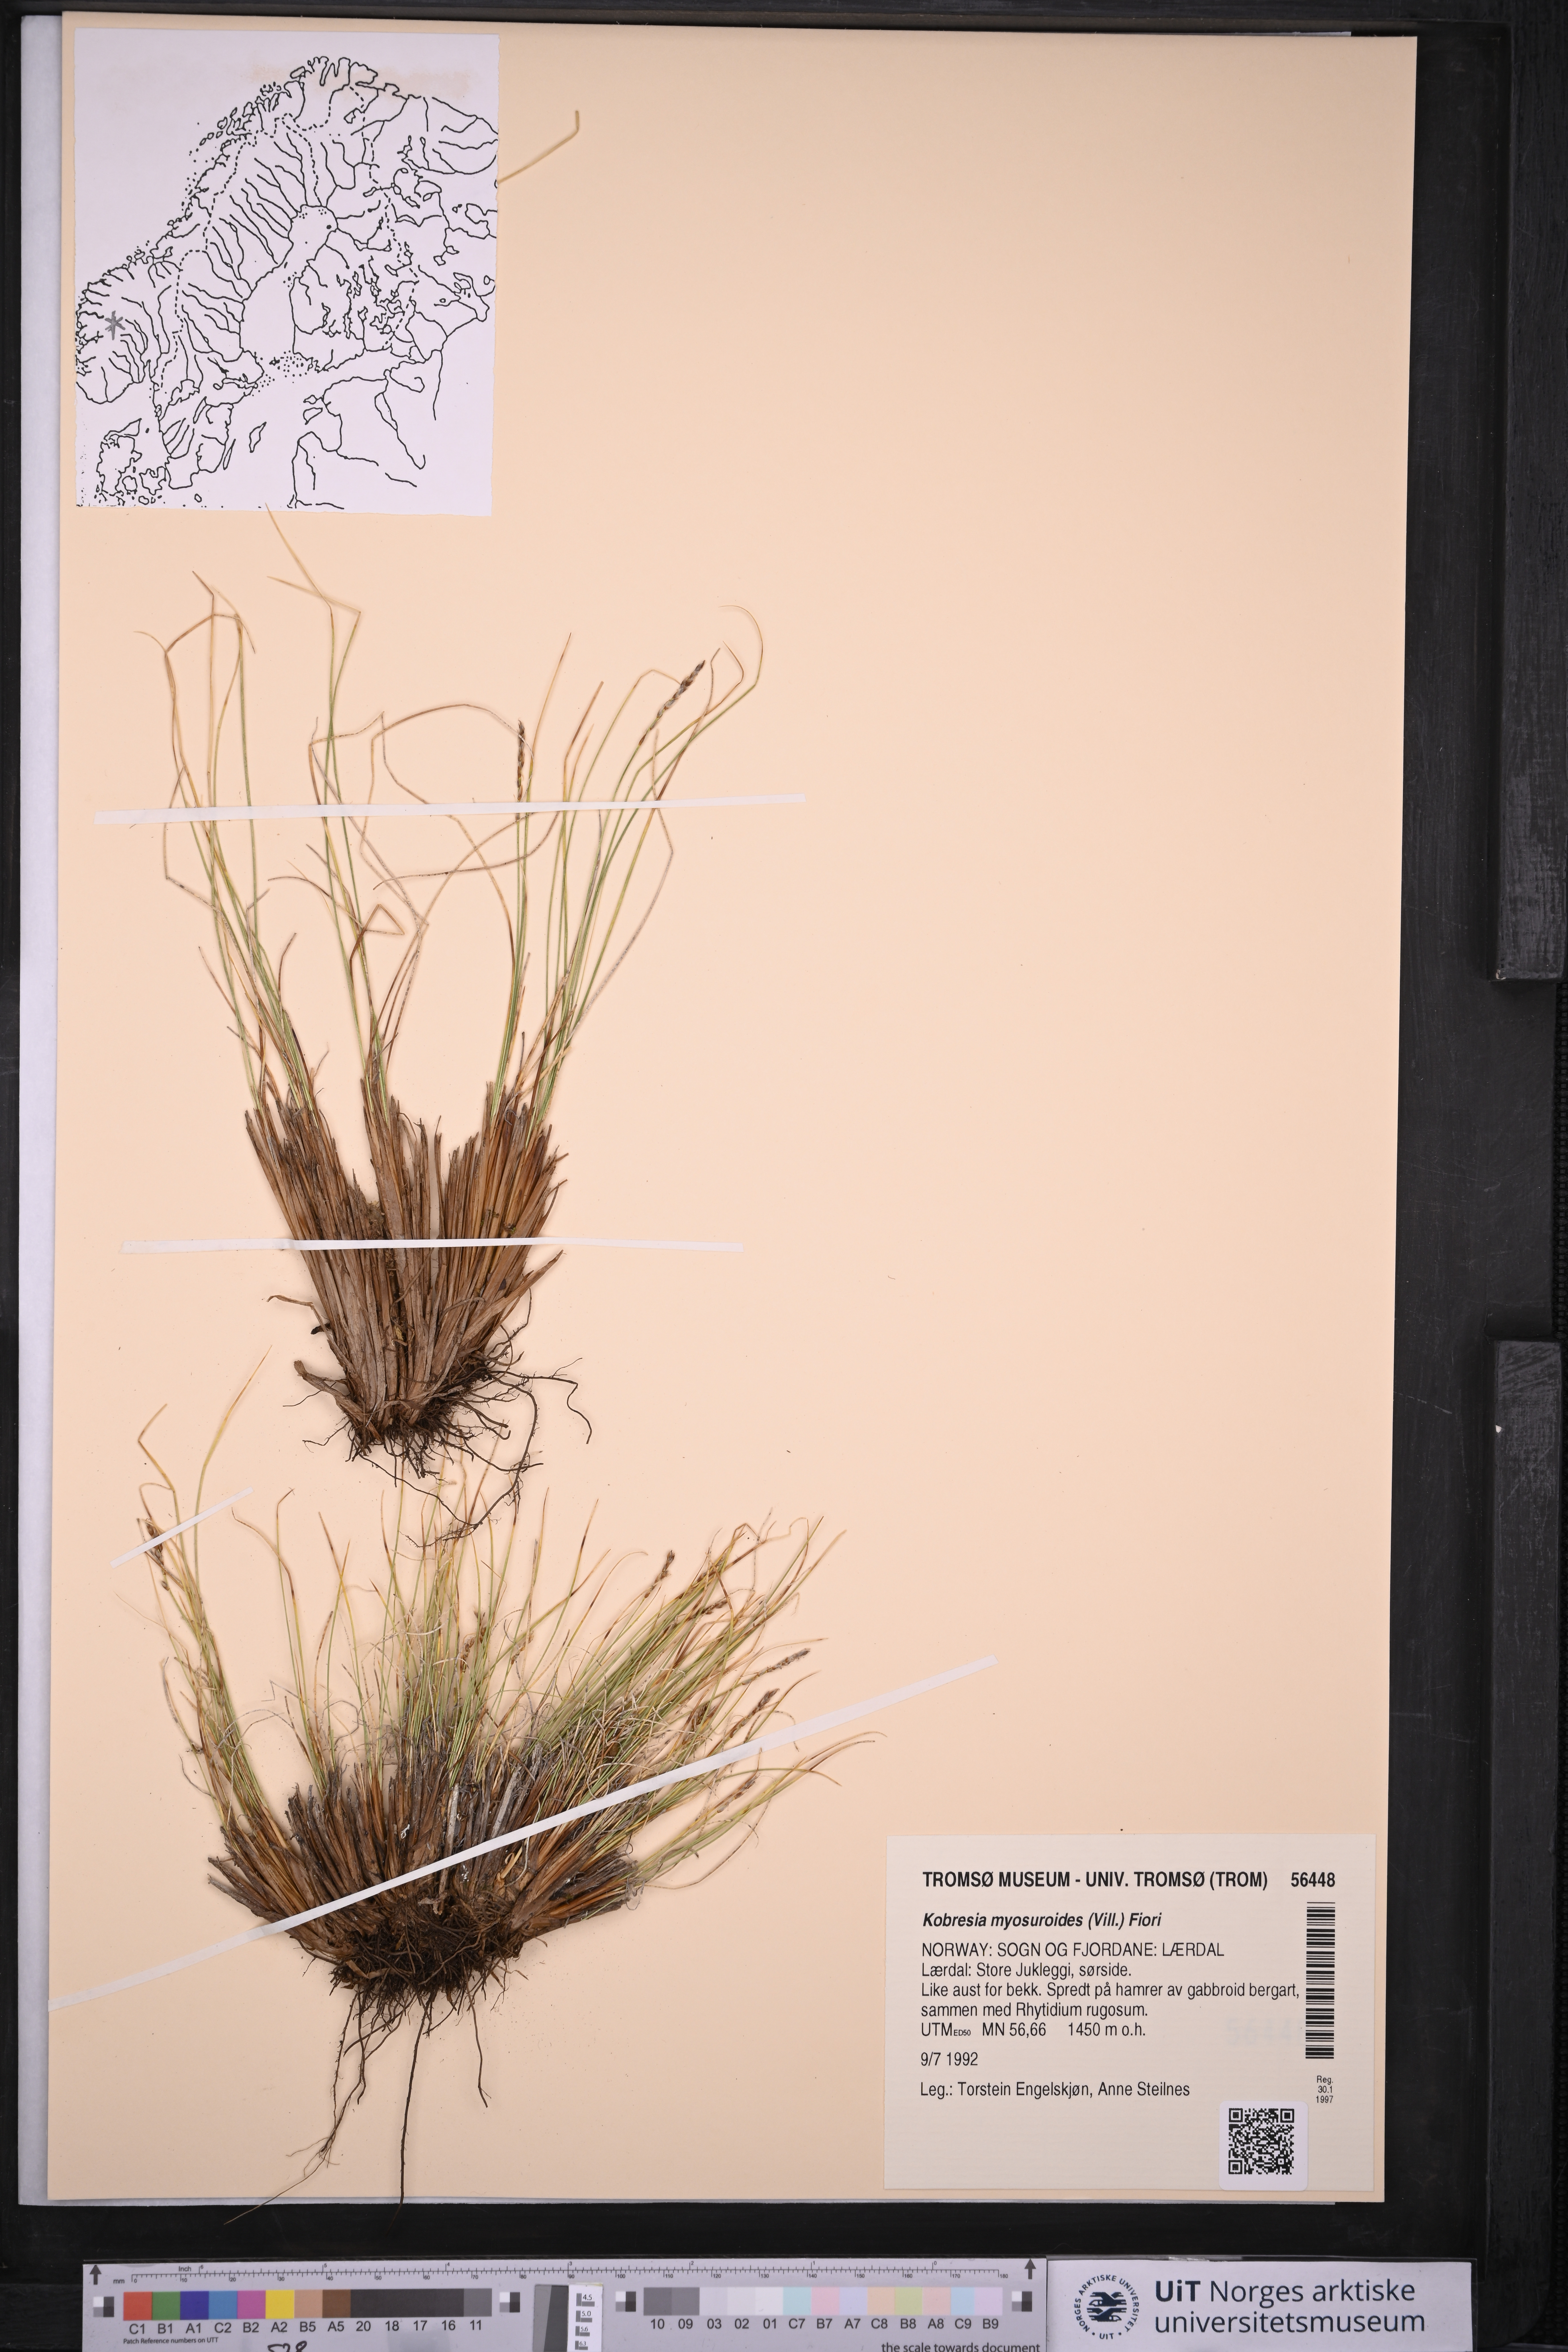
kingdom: Plantae
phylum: Tracheophyta
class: Liliopsida
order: Poales
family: Cyperaceae
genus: Carex
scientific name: Carex myosuroides
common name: Bellard's bog sedge
